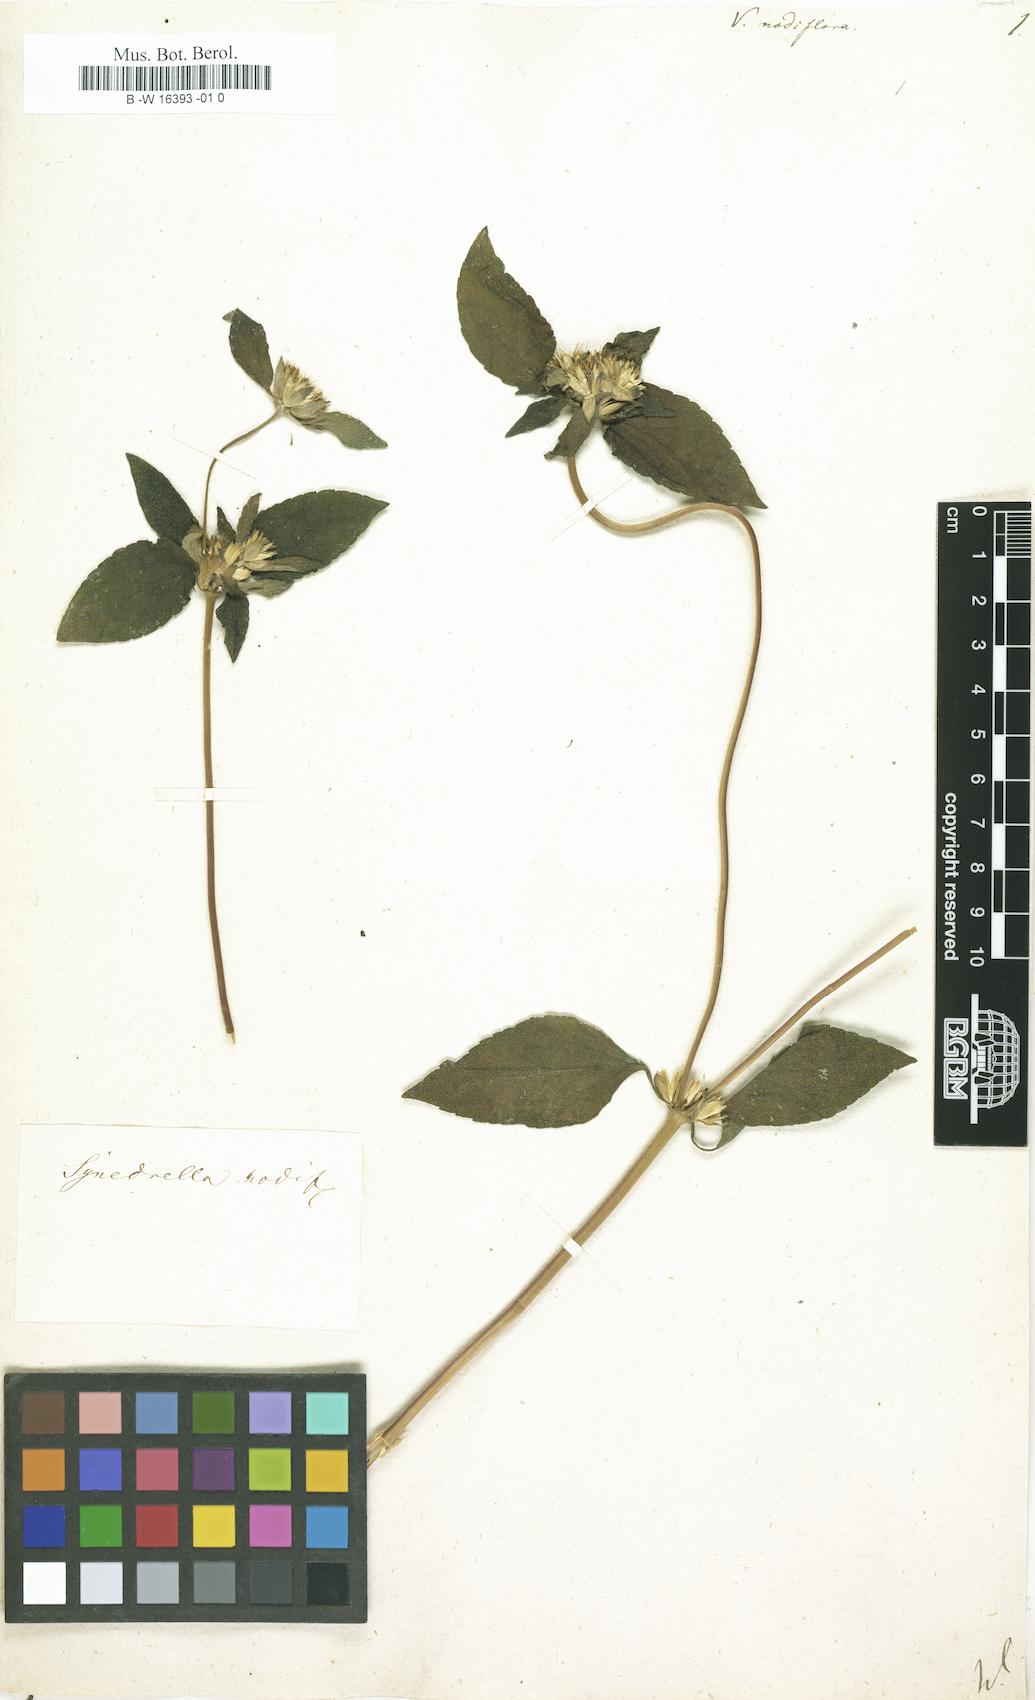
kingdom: Plantae
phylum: Tracheophyta
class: Magnoliopsida
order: Asterales
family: Asteraceae
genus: Synedrella
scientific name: Synedrella nodiflora
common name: Nodeweed
